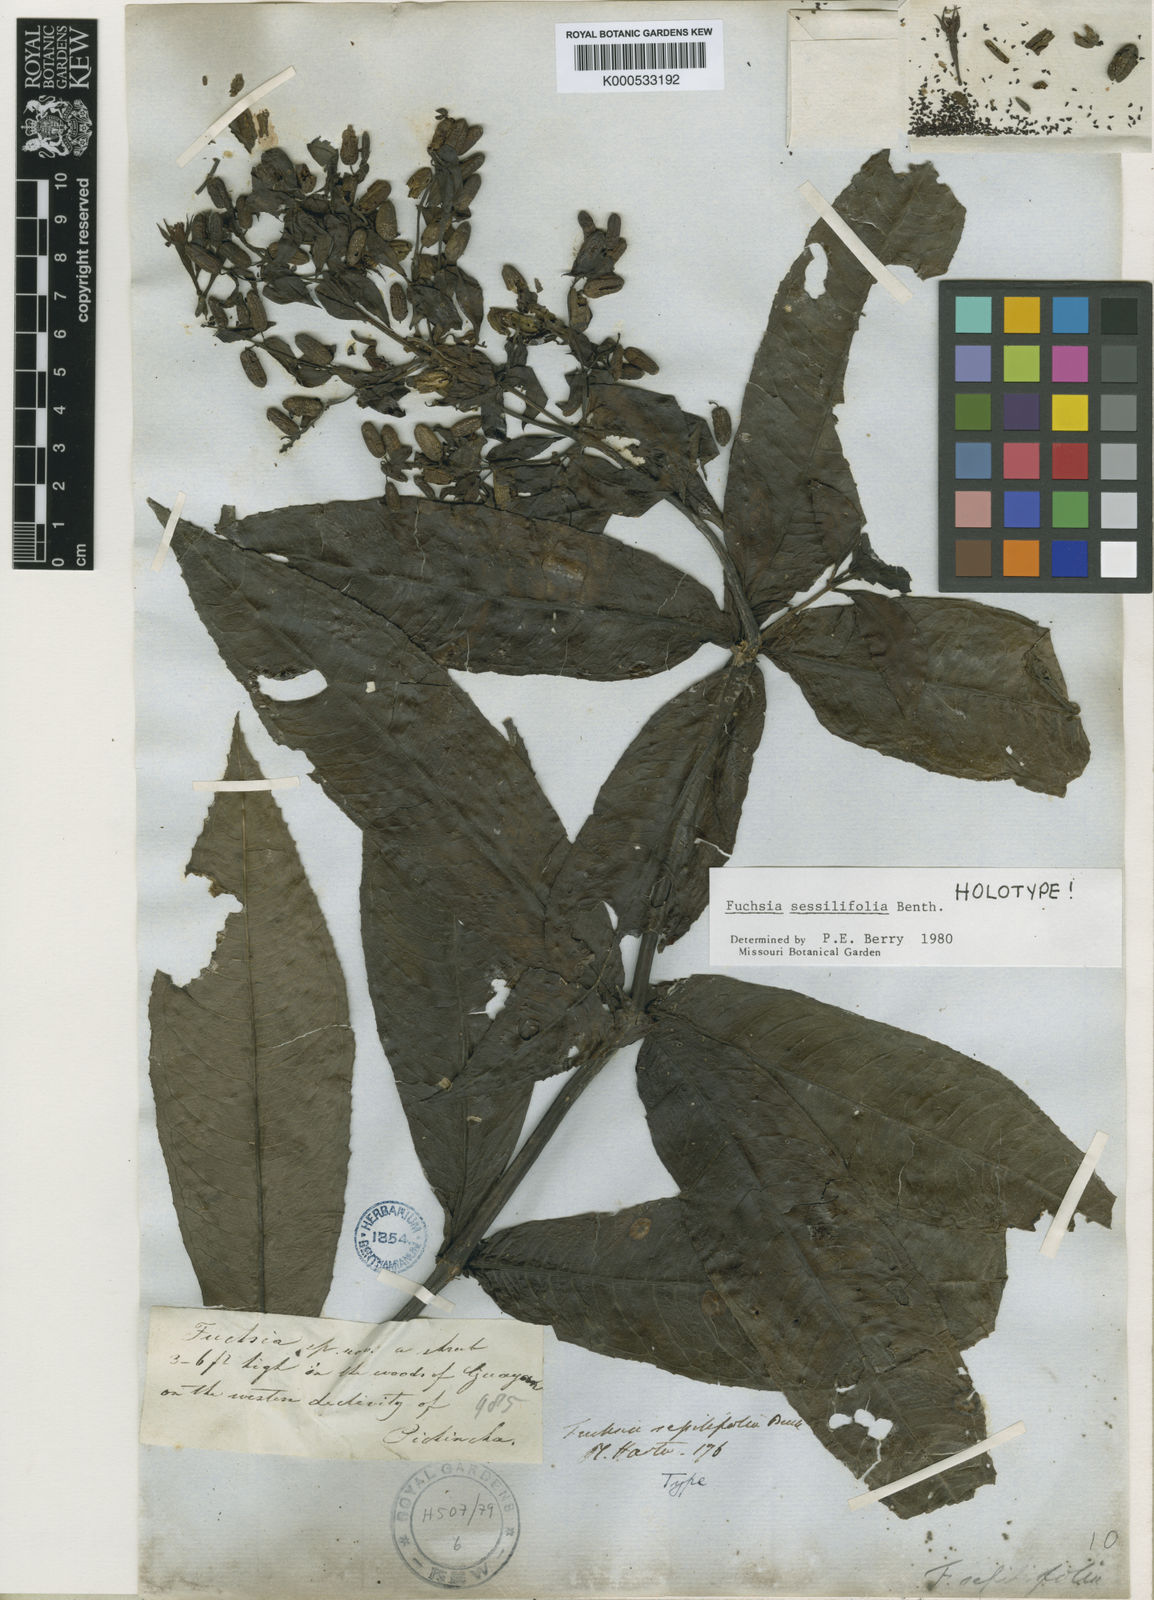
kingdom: Plantae
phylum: Tracheophyta
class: Magnoliopsida
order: Myrtales
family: Onagraceae
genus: Fuchsia
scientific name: Fuchsia sessilifolia
